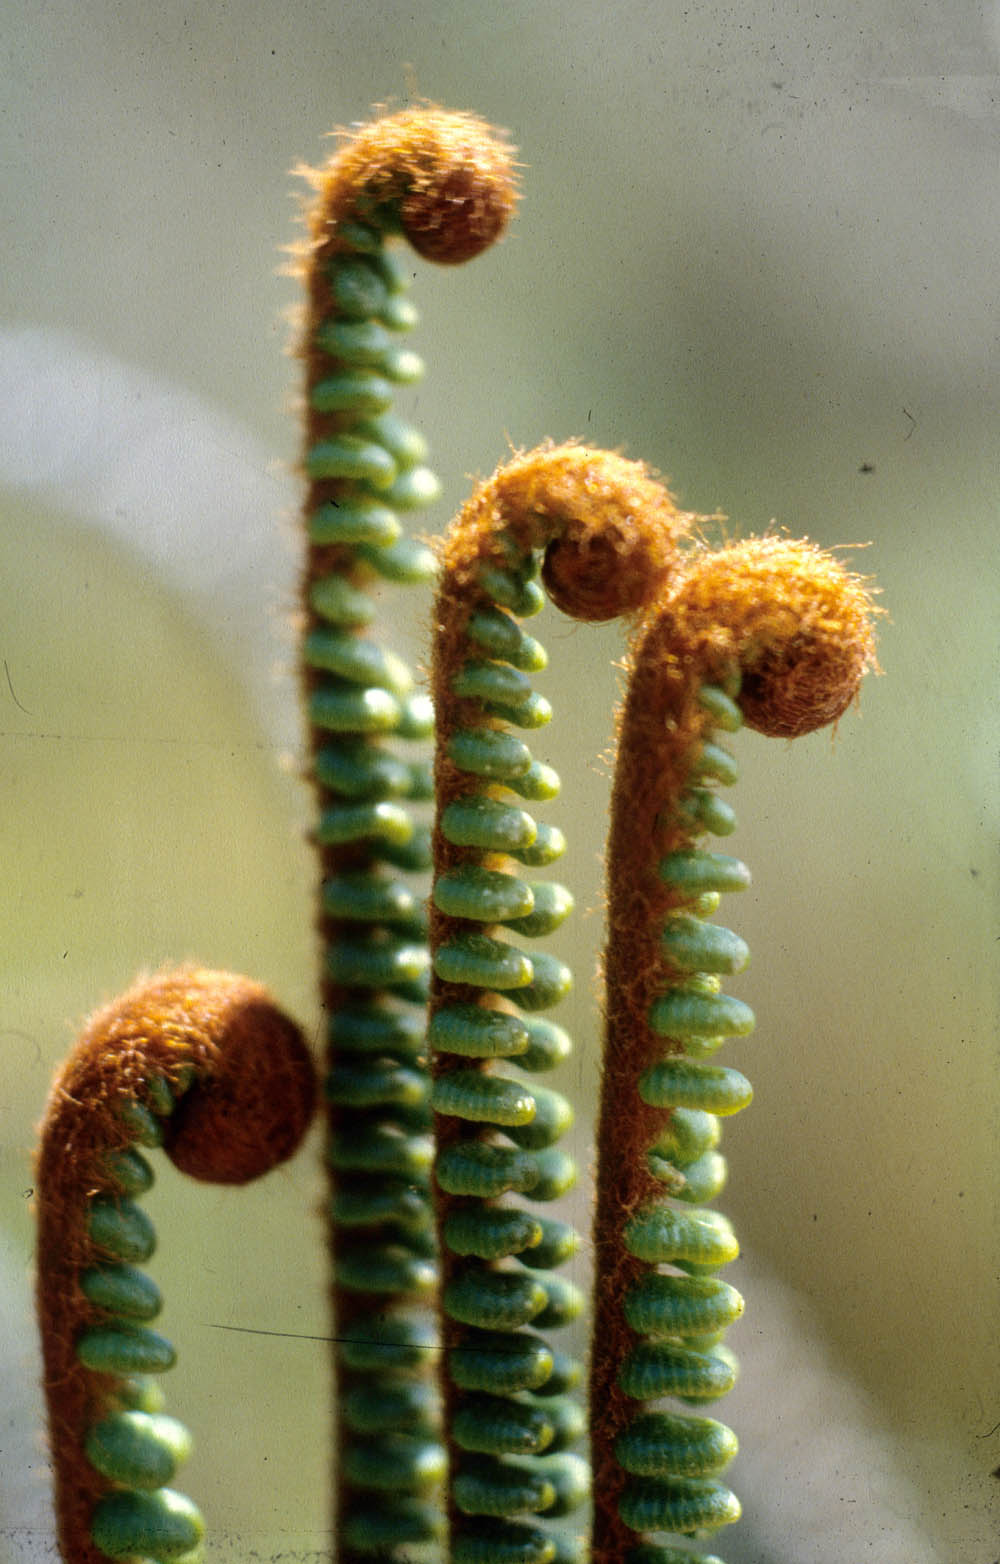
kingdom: Plantae
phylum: Tracheophyta
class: Polypodiopsida
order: Polypodiales
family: Pteridaceae
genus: Jamesonia
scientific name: Jamesonia cinnamomea
